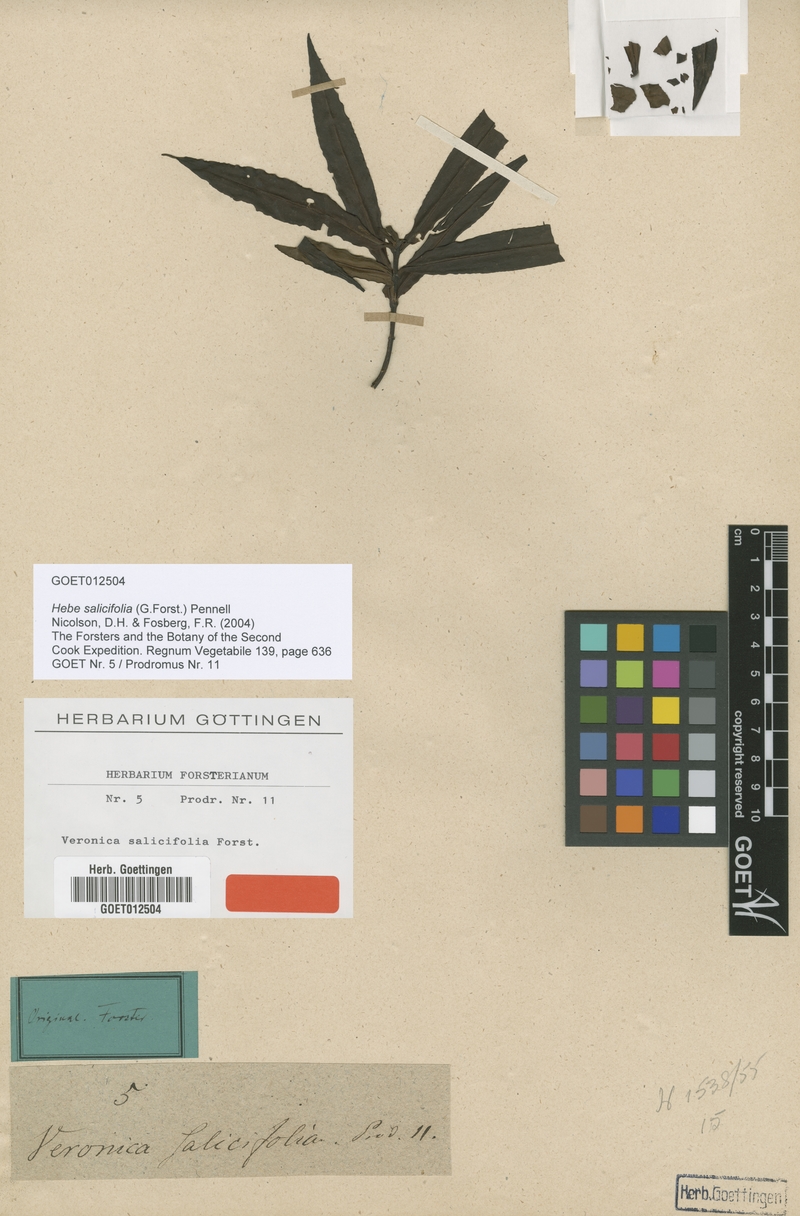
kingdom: Plantae
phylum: Tracheophyta
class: Magnoliopsida
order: Lamiales
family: Plantaginaceae
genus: Veronica
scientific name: Veronica salicifolia
